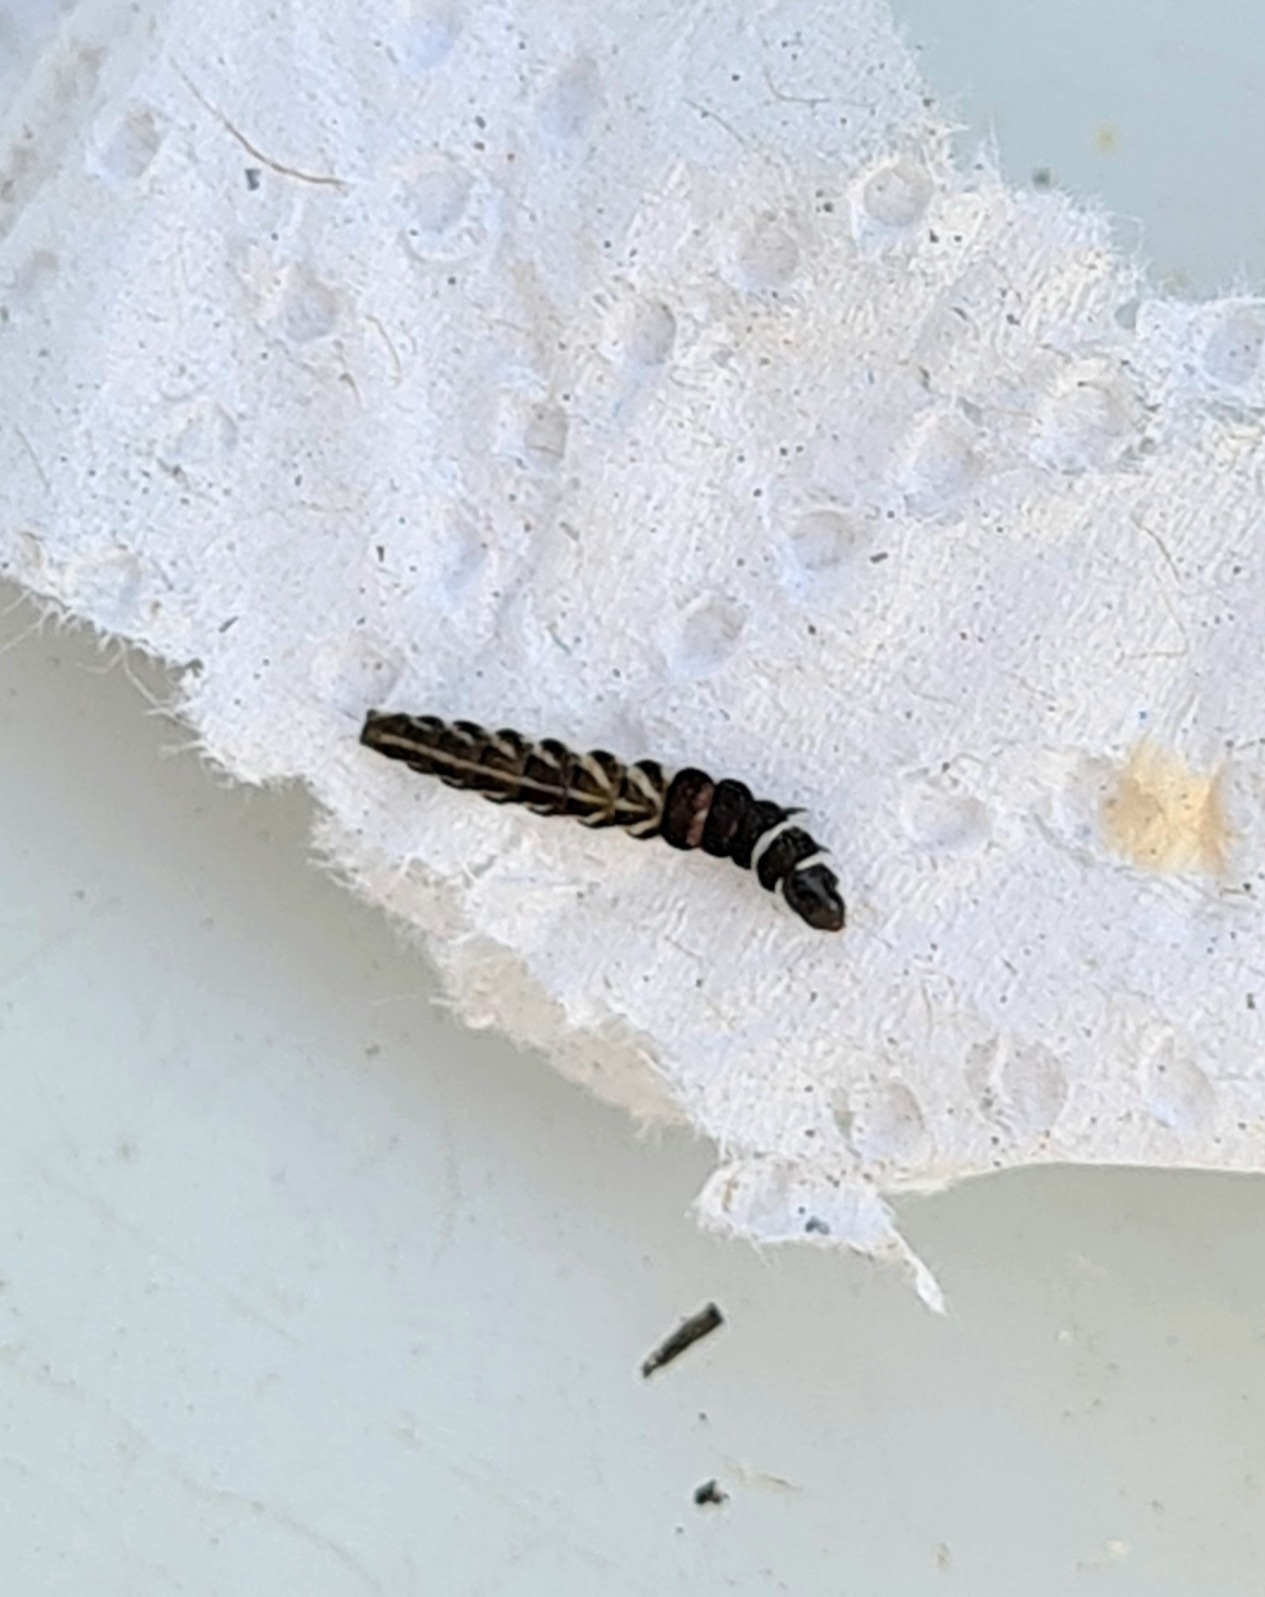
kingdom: Animalia
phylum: Arthropoda
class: Insecta
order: Lepidoptera
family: Gelechiidae
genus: Helcystogramma
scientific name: Helcystogramma
